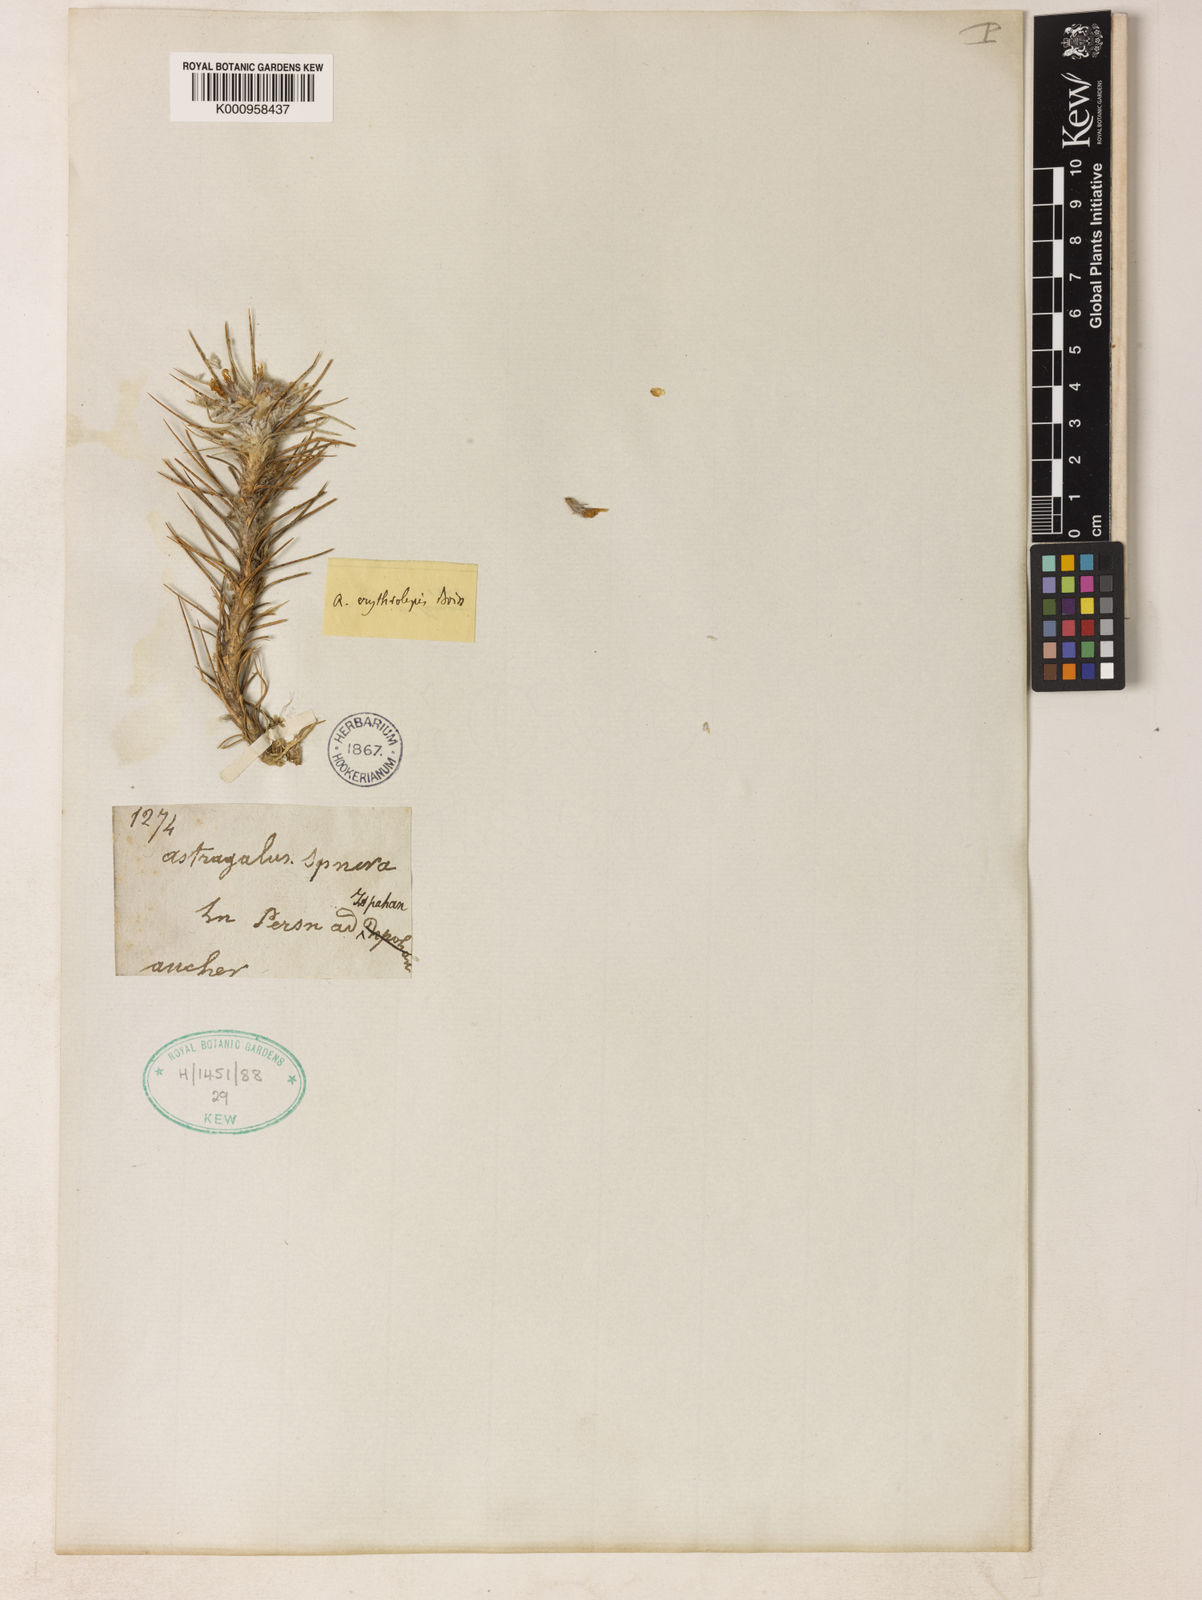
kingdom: Plantae
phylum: Tracheophyta
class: Magnoliopsida
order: Fabales
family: Fabaceae
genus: Astragalus
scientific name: Astragalus erythrolepis
